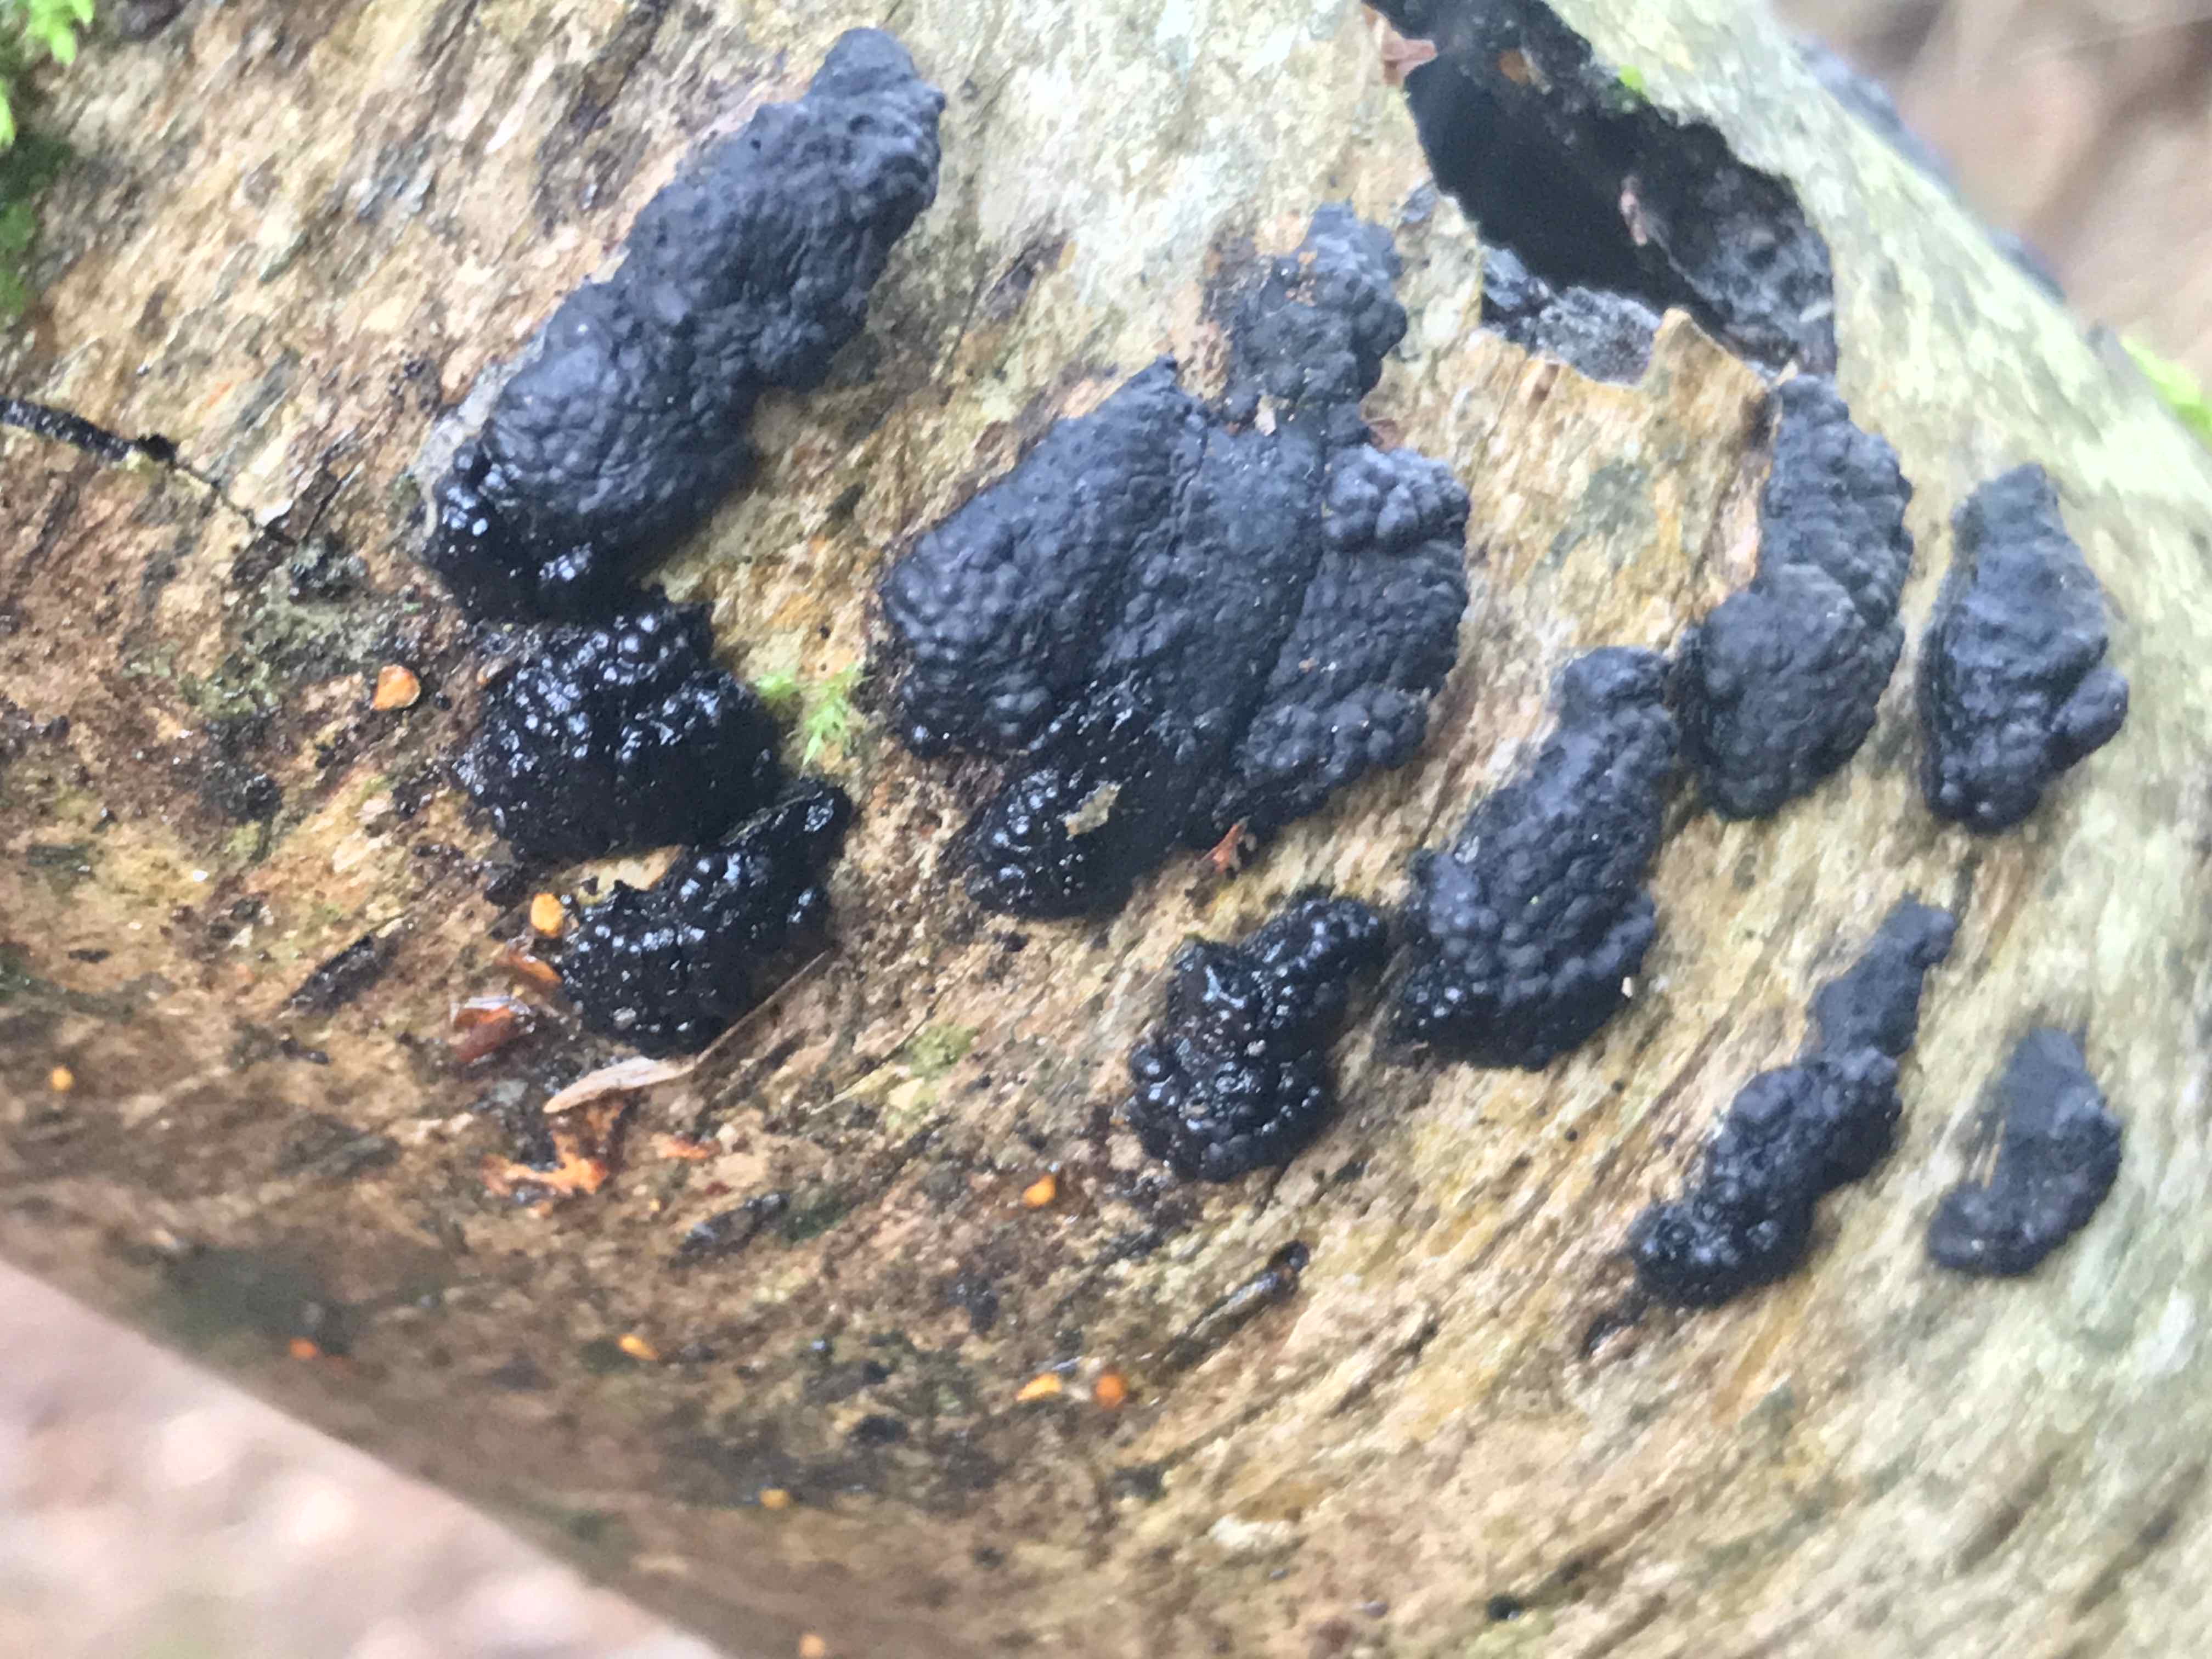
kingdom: Fungi
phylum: Ascomycota
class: Sordariomycetes
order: Xylariales
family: Hypoxylaceae
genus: Jackrogersella
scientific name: Jackrogersella multiformis
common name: foranderlig kulbær
